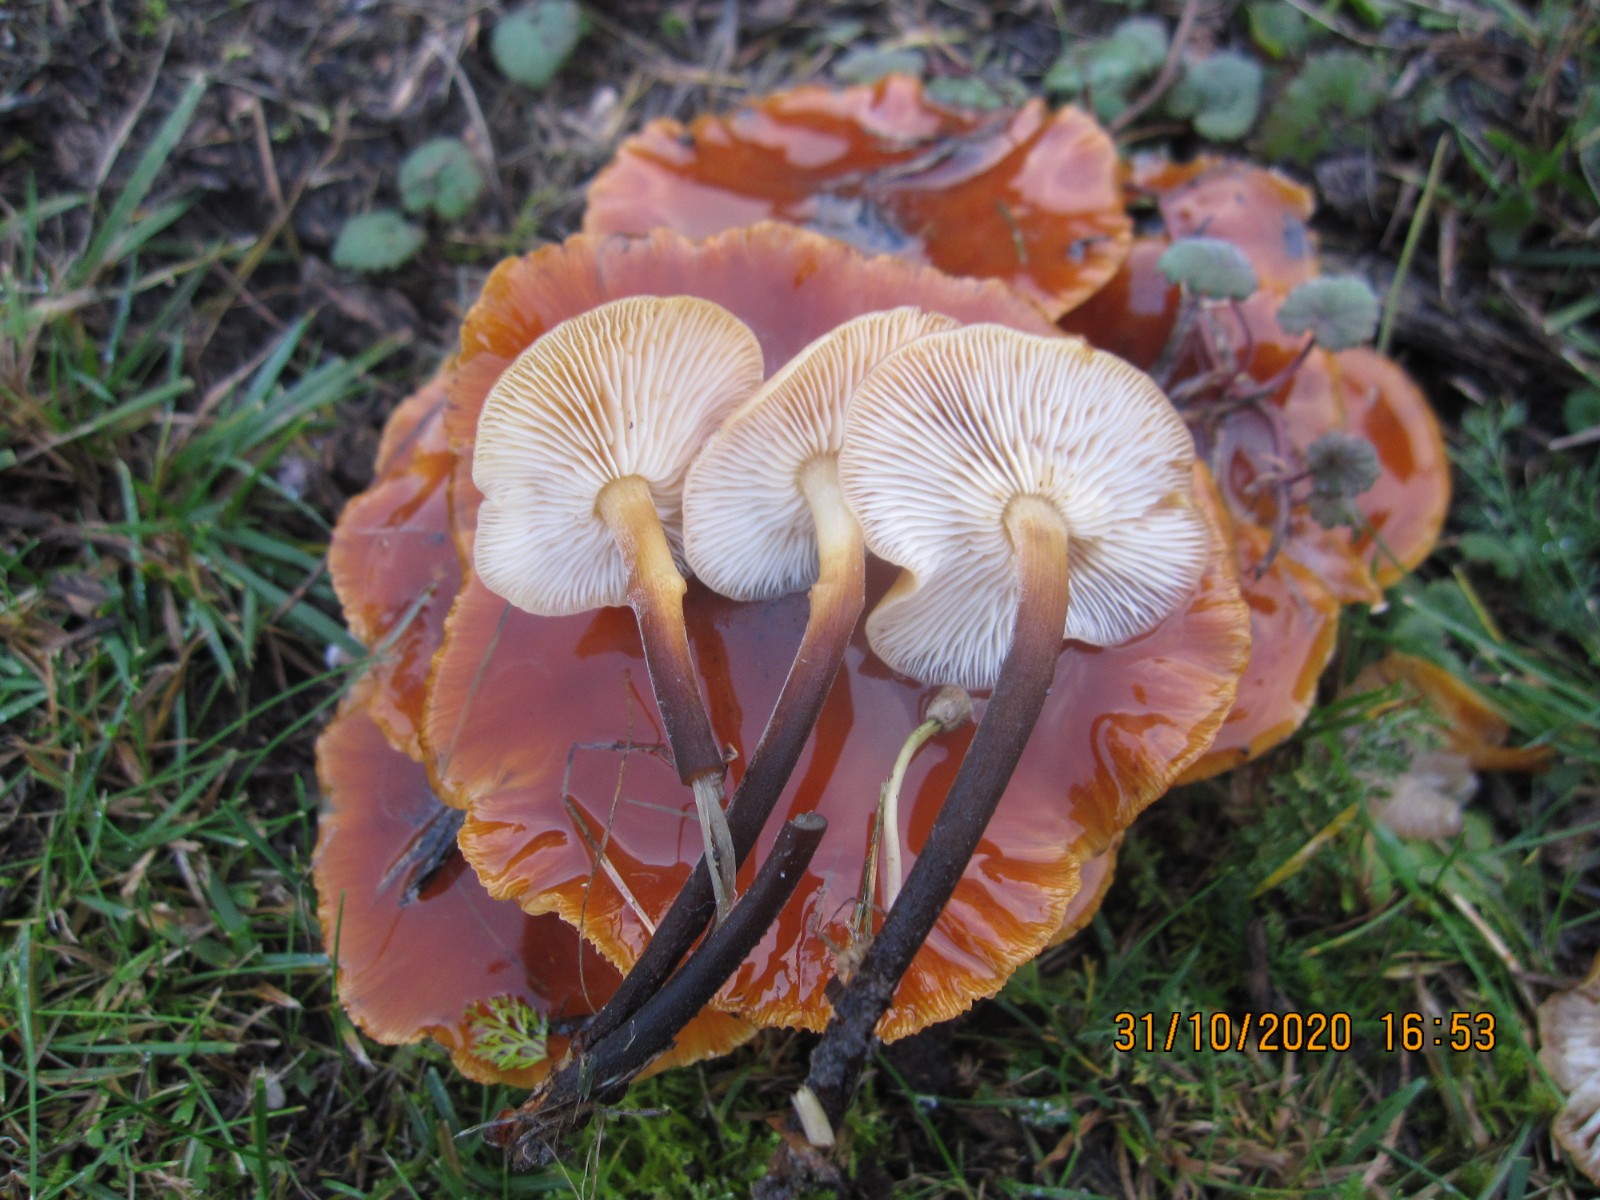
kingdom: Fungi
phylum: Basidiomycota
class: Agaricomycetes
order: Agaricales
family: Physalacriaceae
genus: Flammulina
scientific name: Flammulina velutipes
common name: gul fløjlsfod
